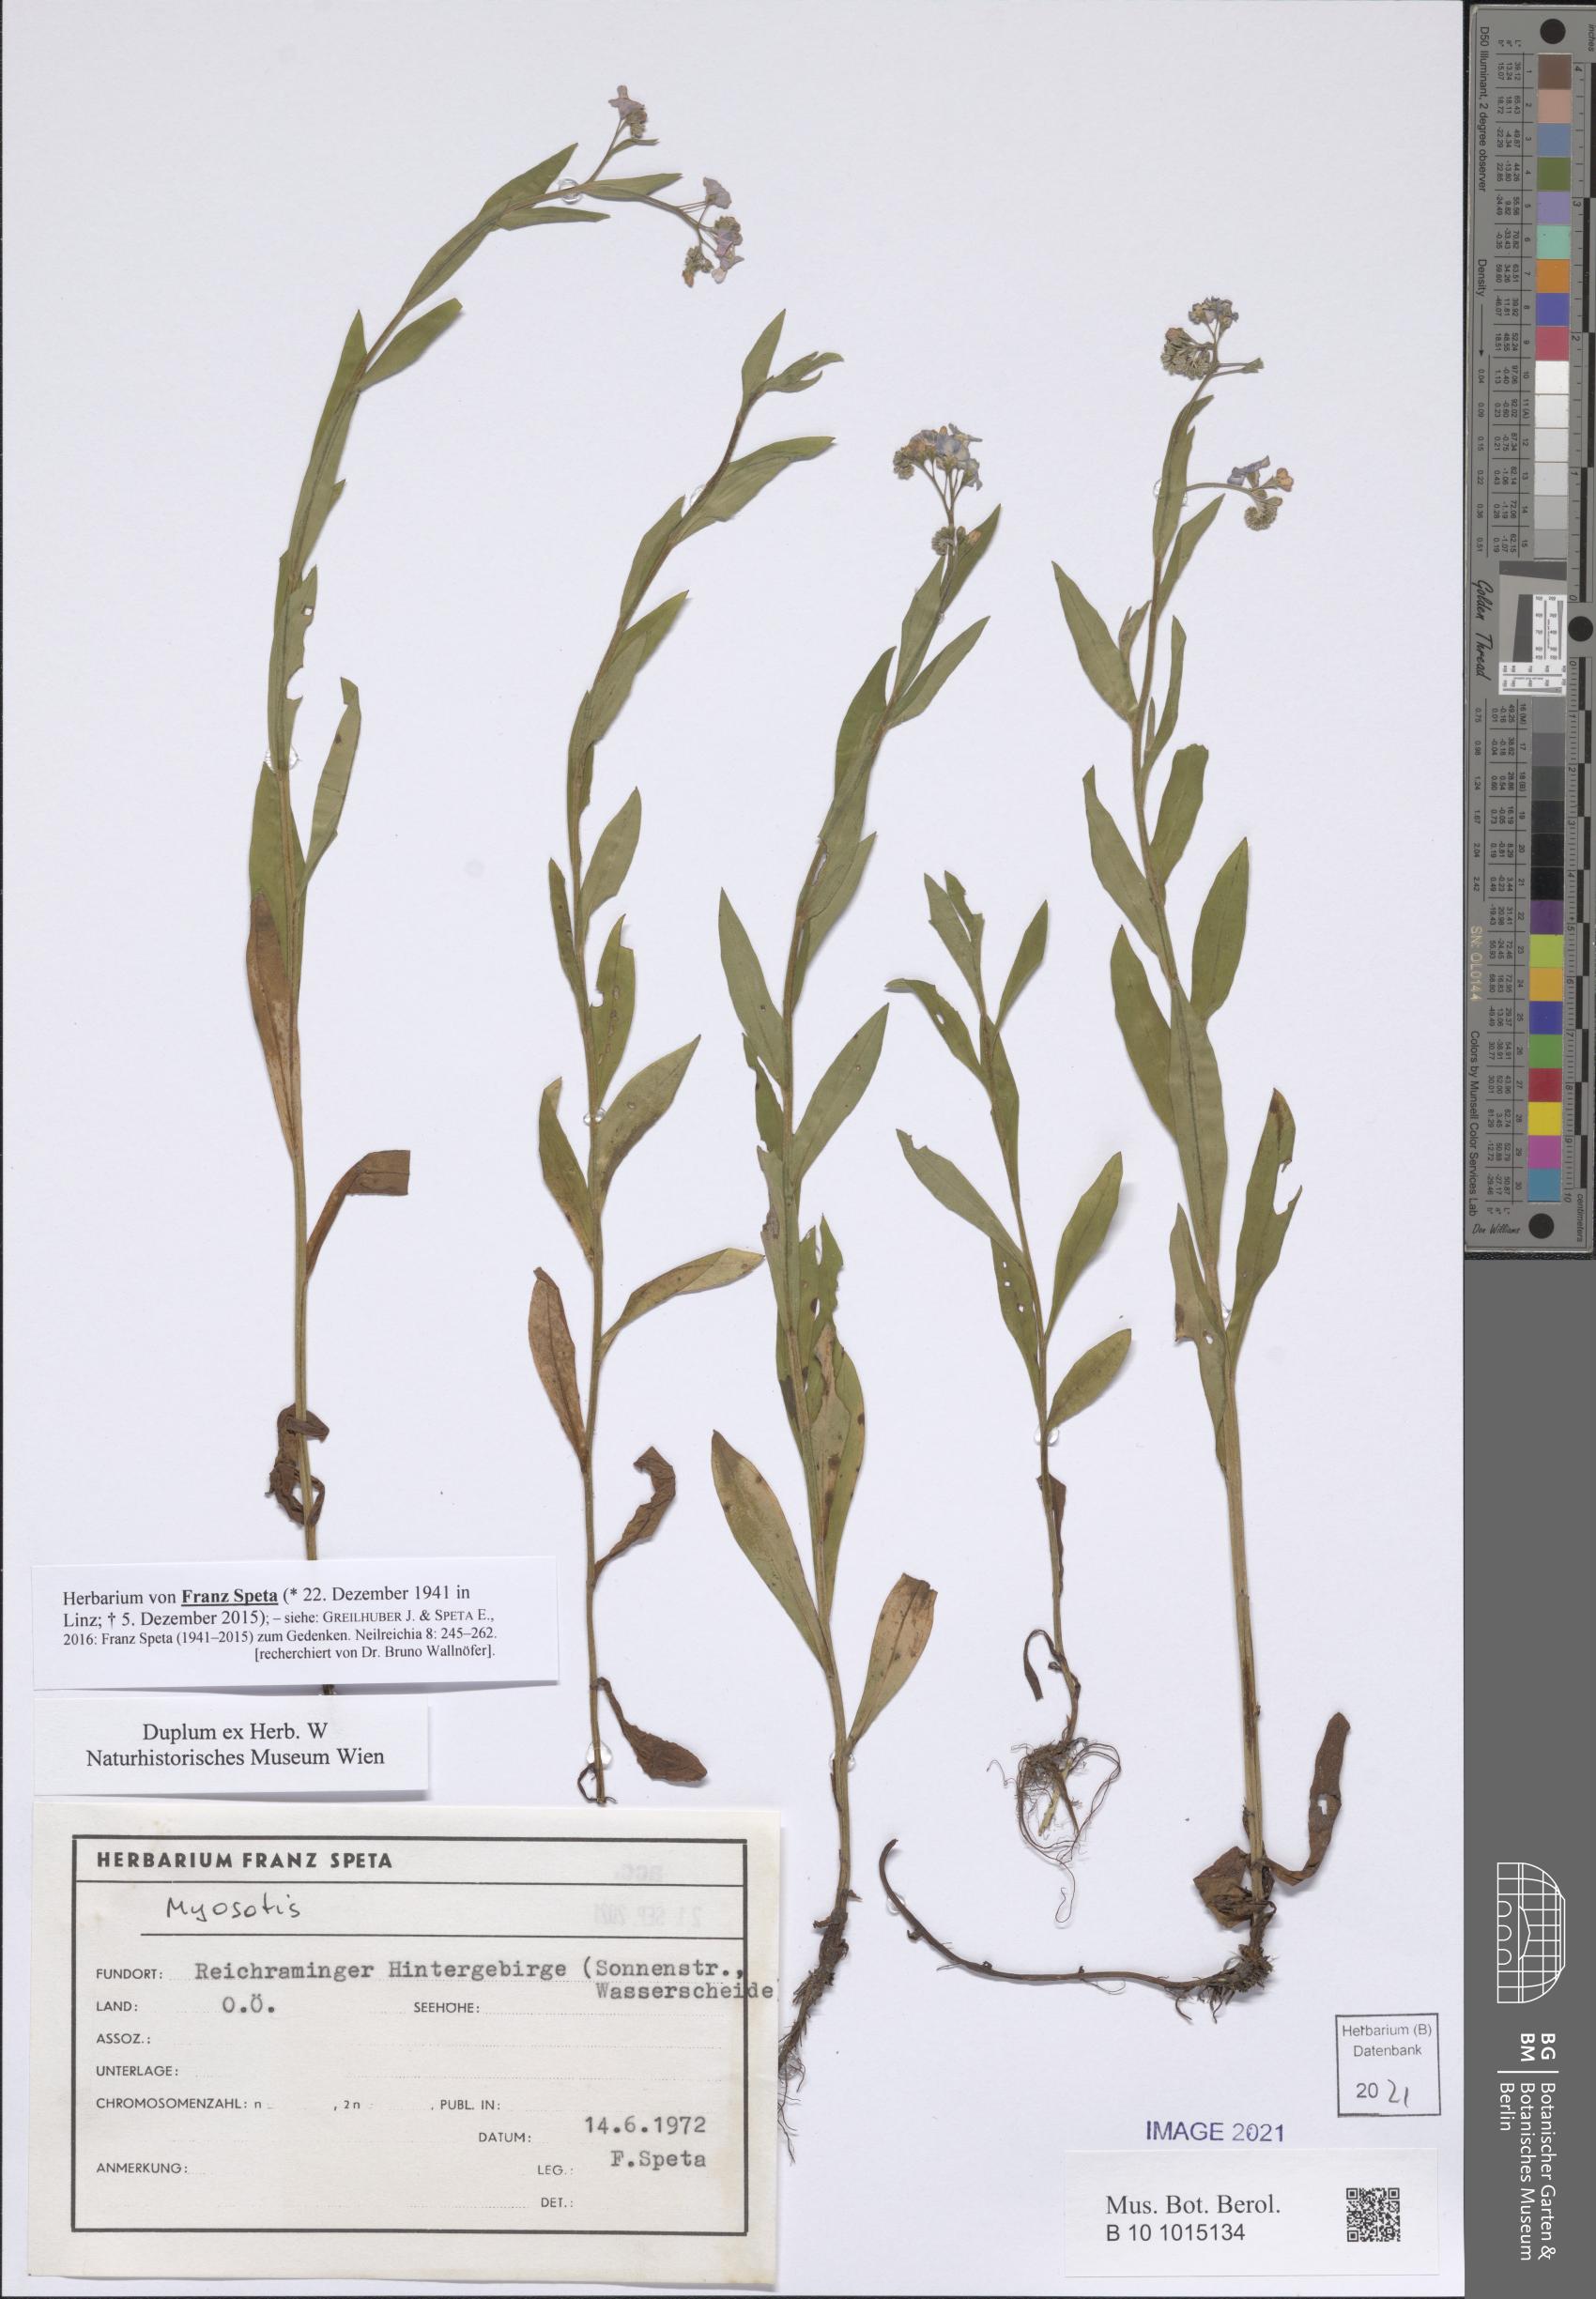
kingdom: Plantae
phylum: Tracheophyta
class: Magnoliopsida
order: Boraginales
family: Boraginaceae
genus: Myosotis
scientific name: Myosotis
